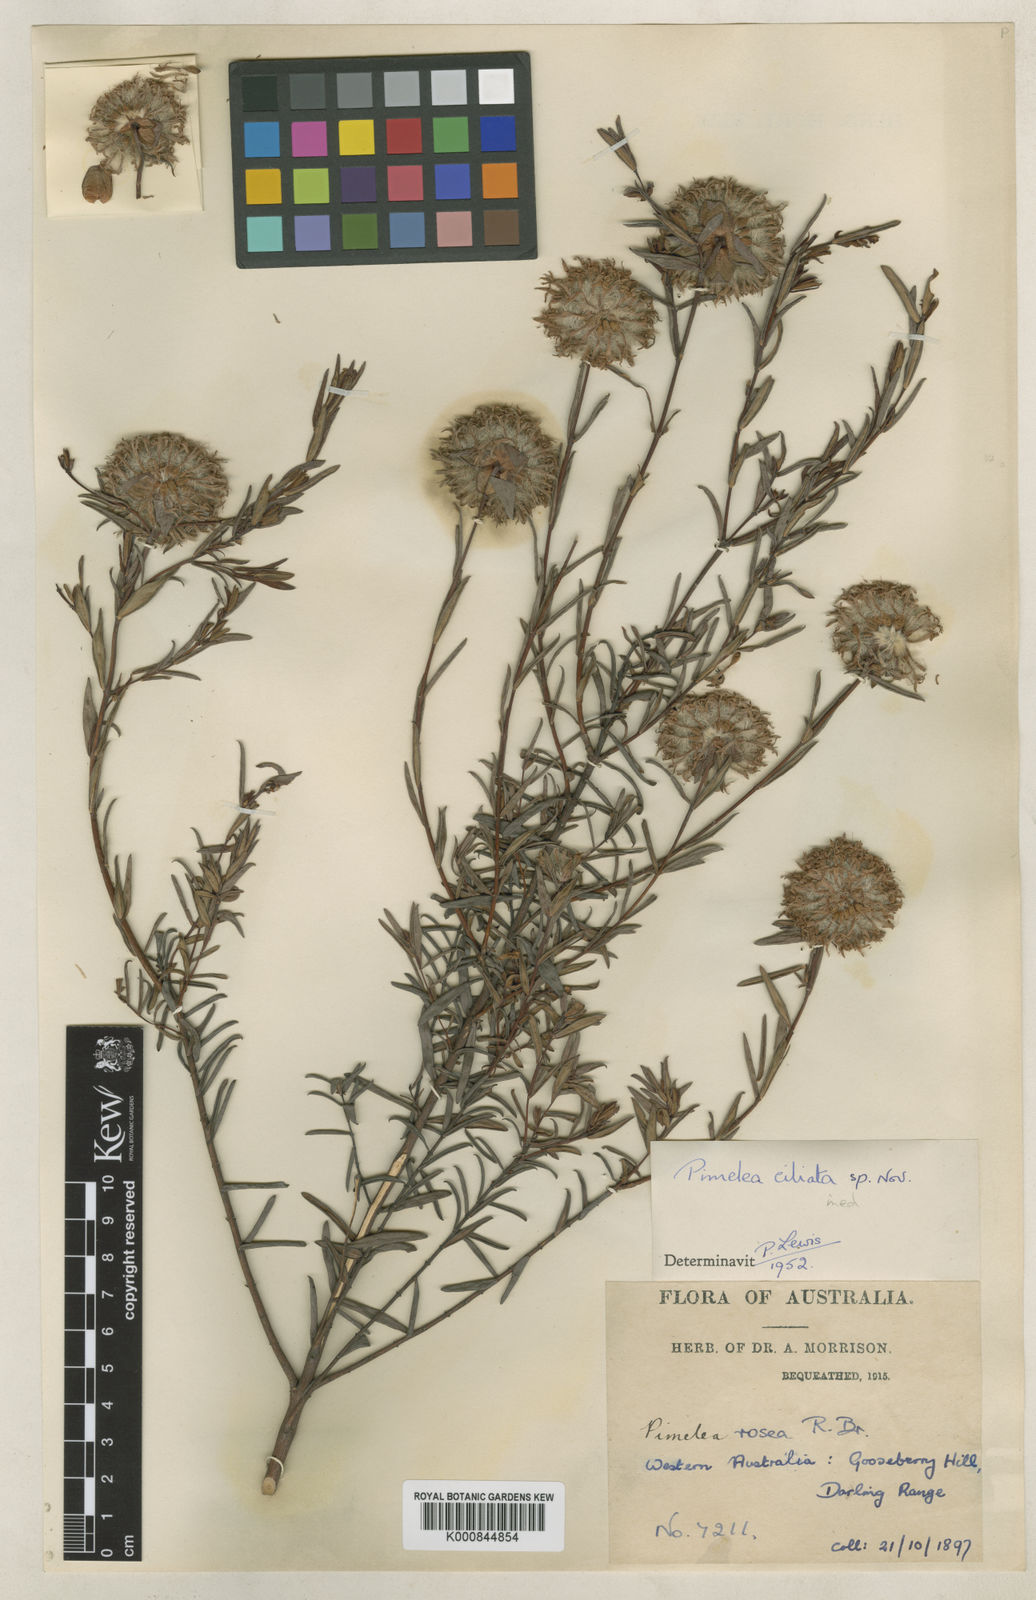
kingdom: Plantae
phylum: Tracheophyta
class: Magnoliopsida
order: Malvales
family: Thymelaeaceae
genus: Pimelea
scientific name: Pimelea ciliata
